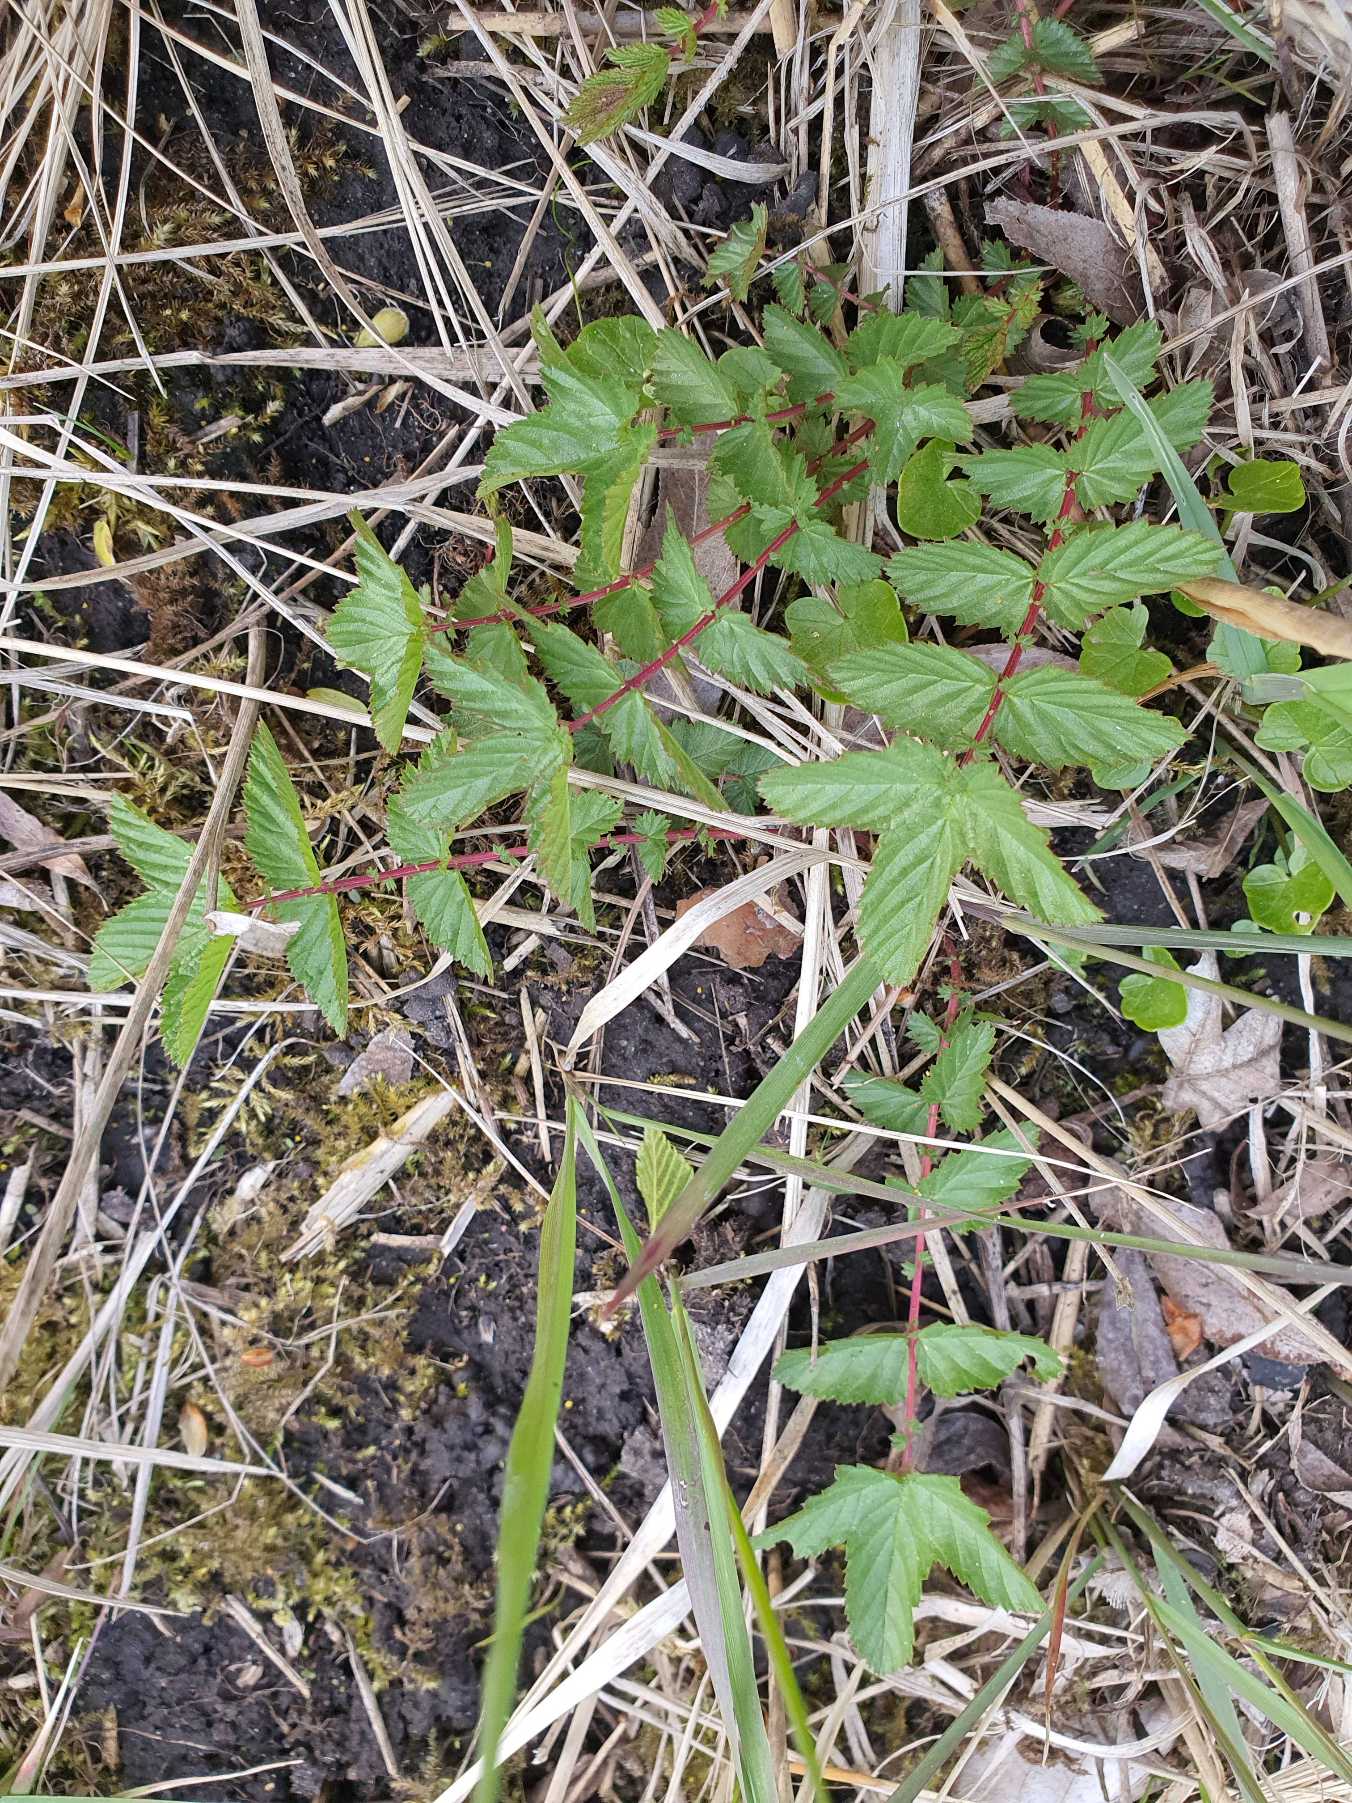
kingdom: Plantae
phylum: Tracheophyta
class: Magnoliopsida
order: Rosales
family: Rosaceae
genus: Filipendula
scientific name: Filipendula ulmaria
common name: Almindelig mjødurt
